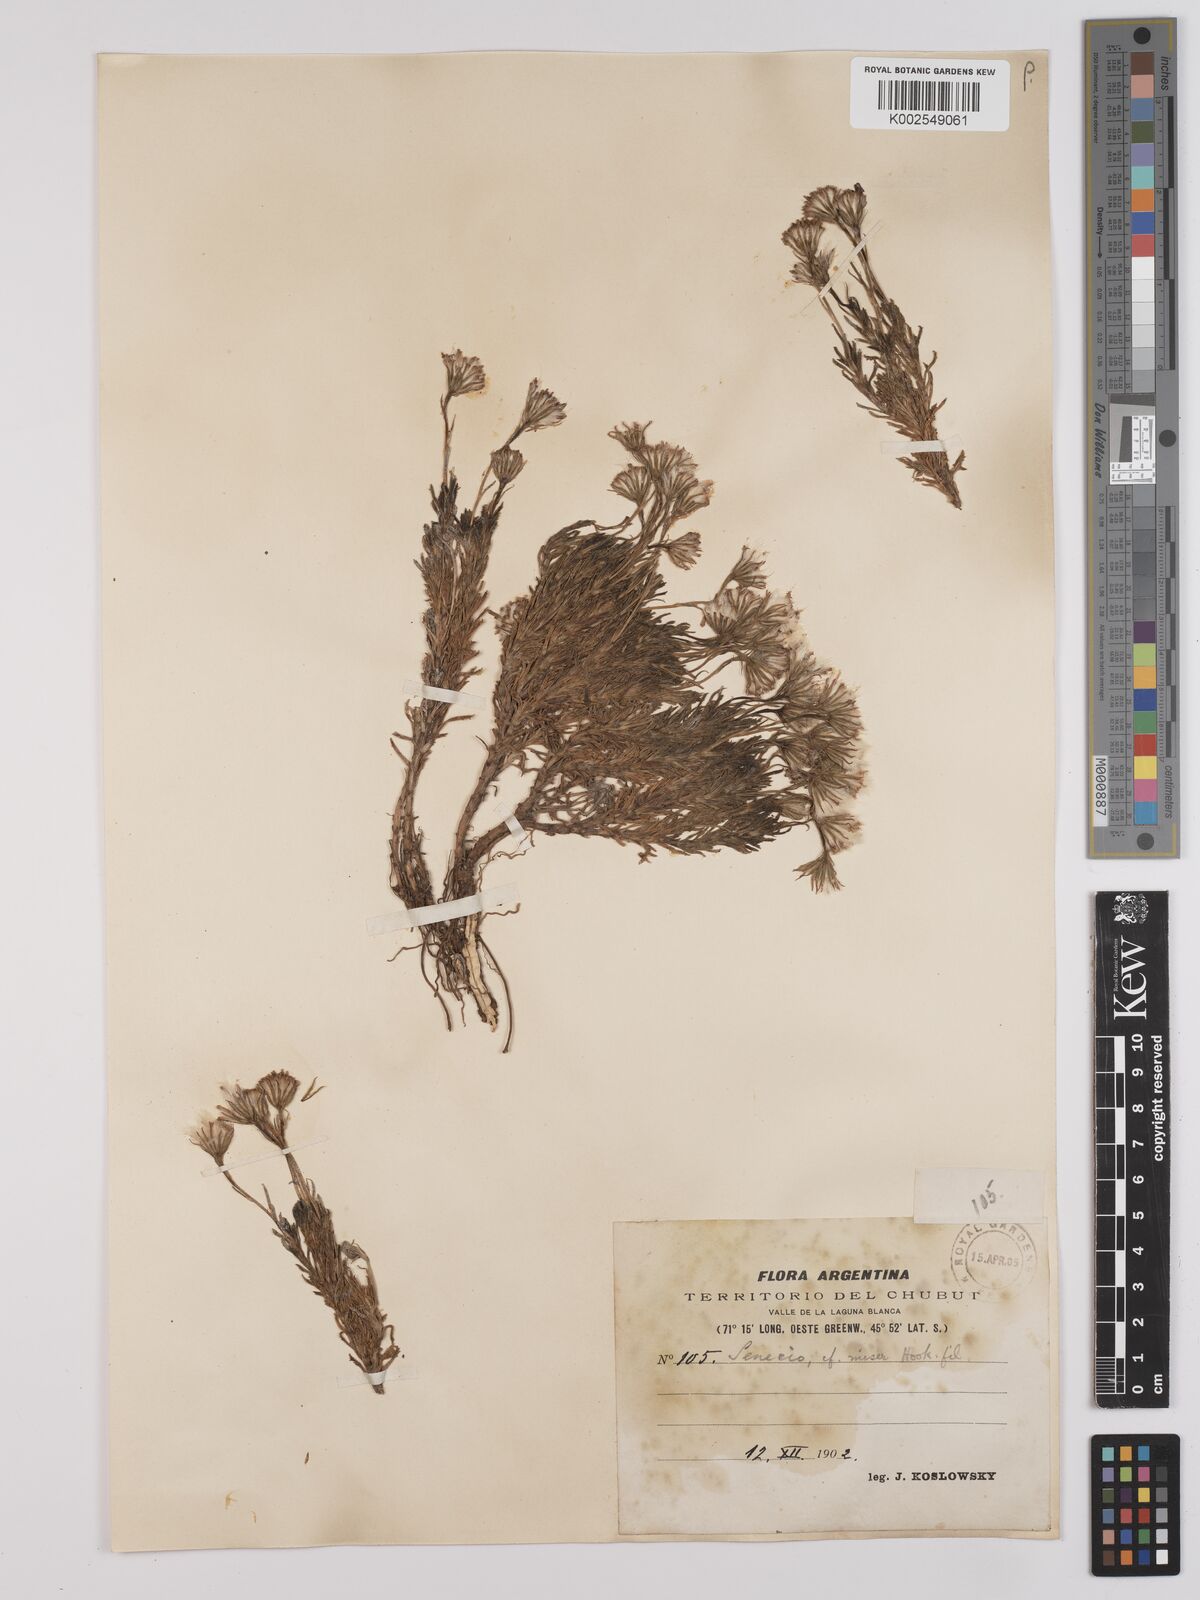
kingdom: Plantae
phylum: Tracheophyta
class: Magnoliopsida
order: Asterales
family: Asteraceae
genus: Senecio
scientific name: Senecio miser
